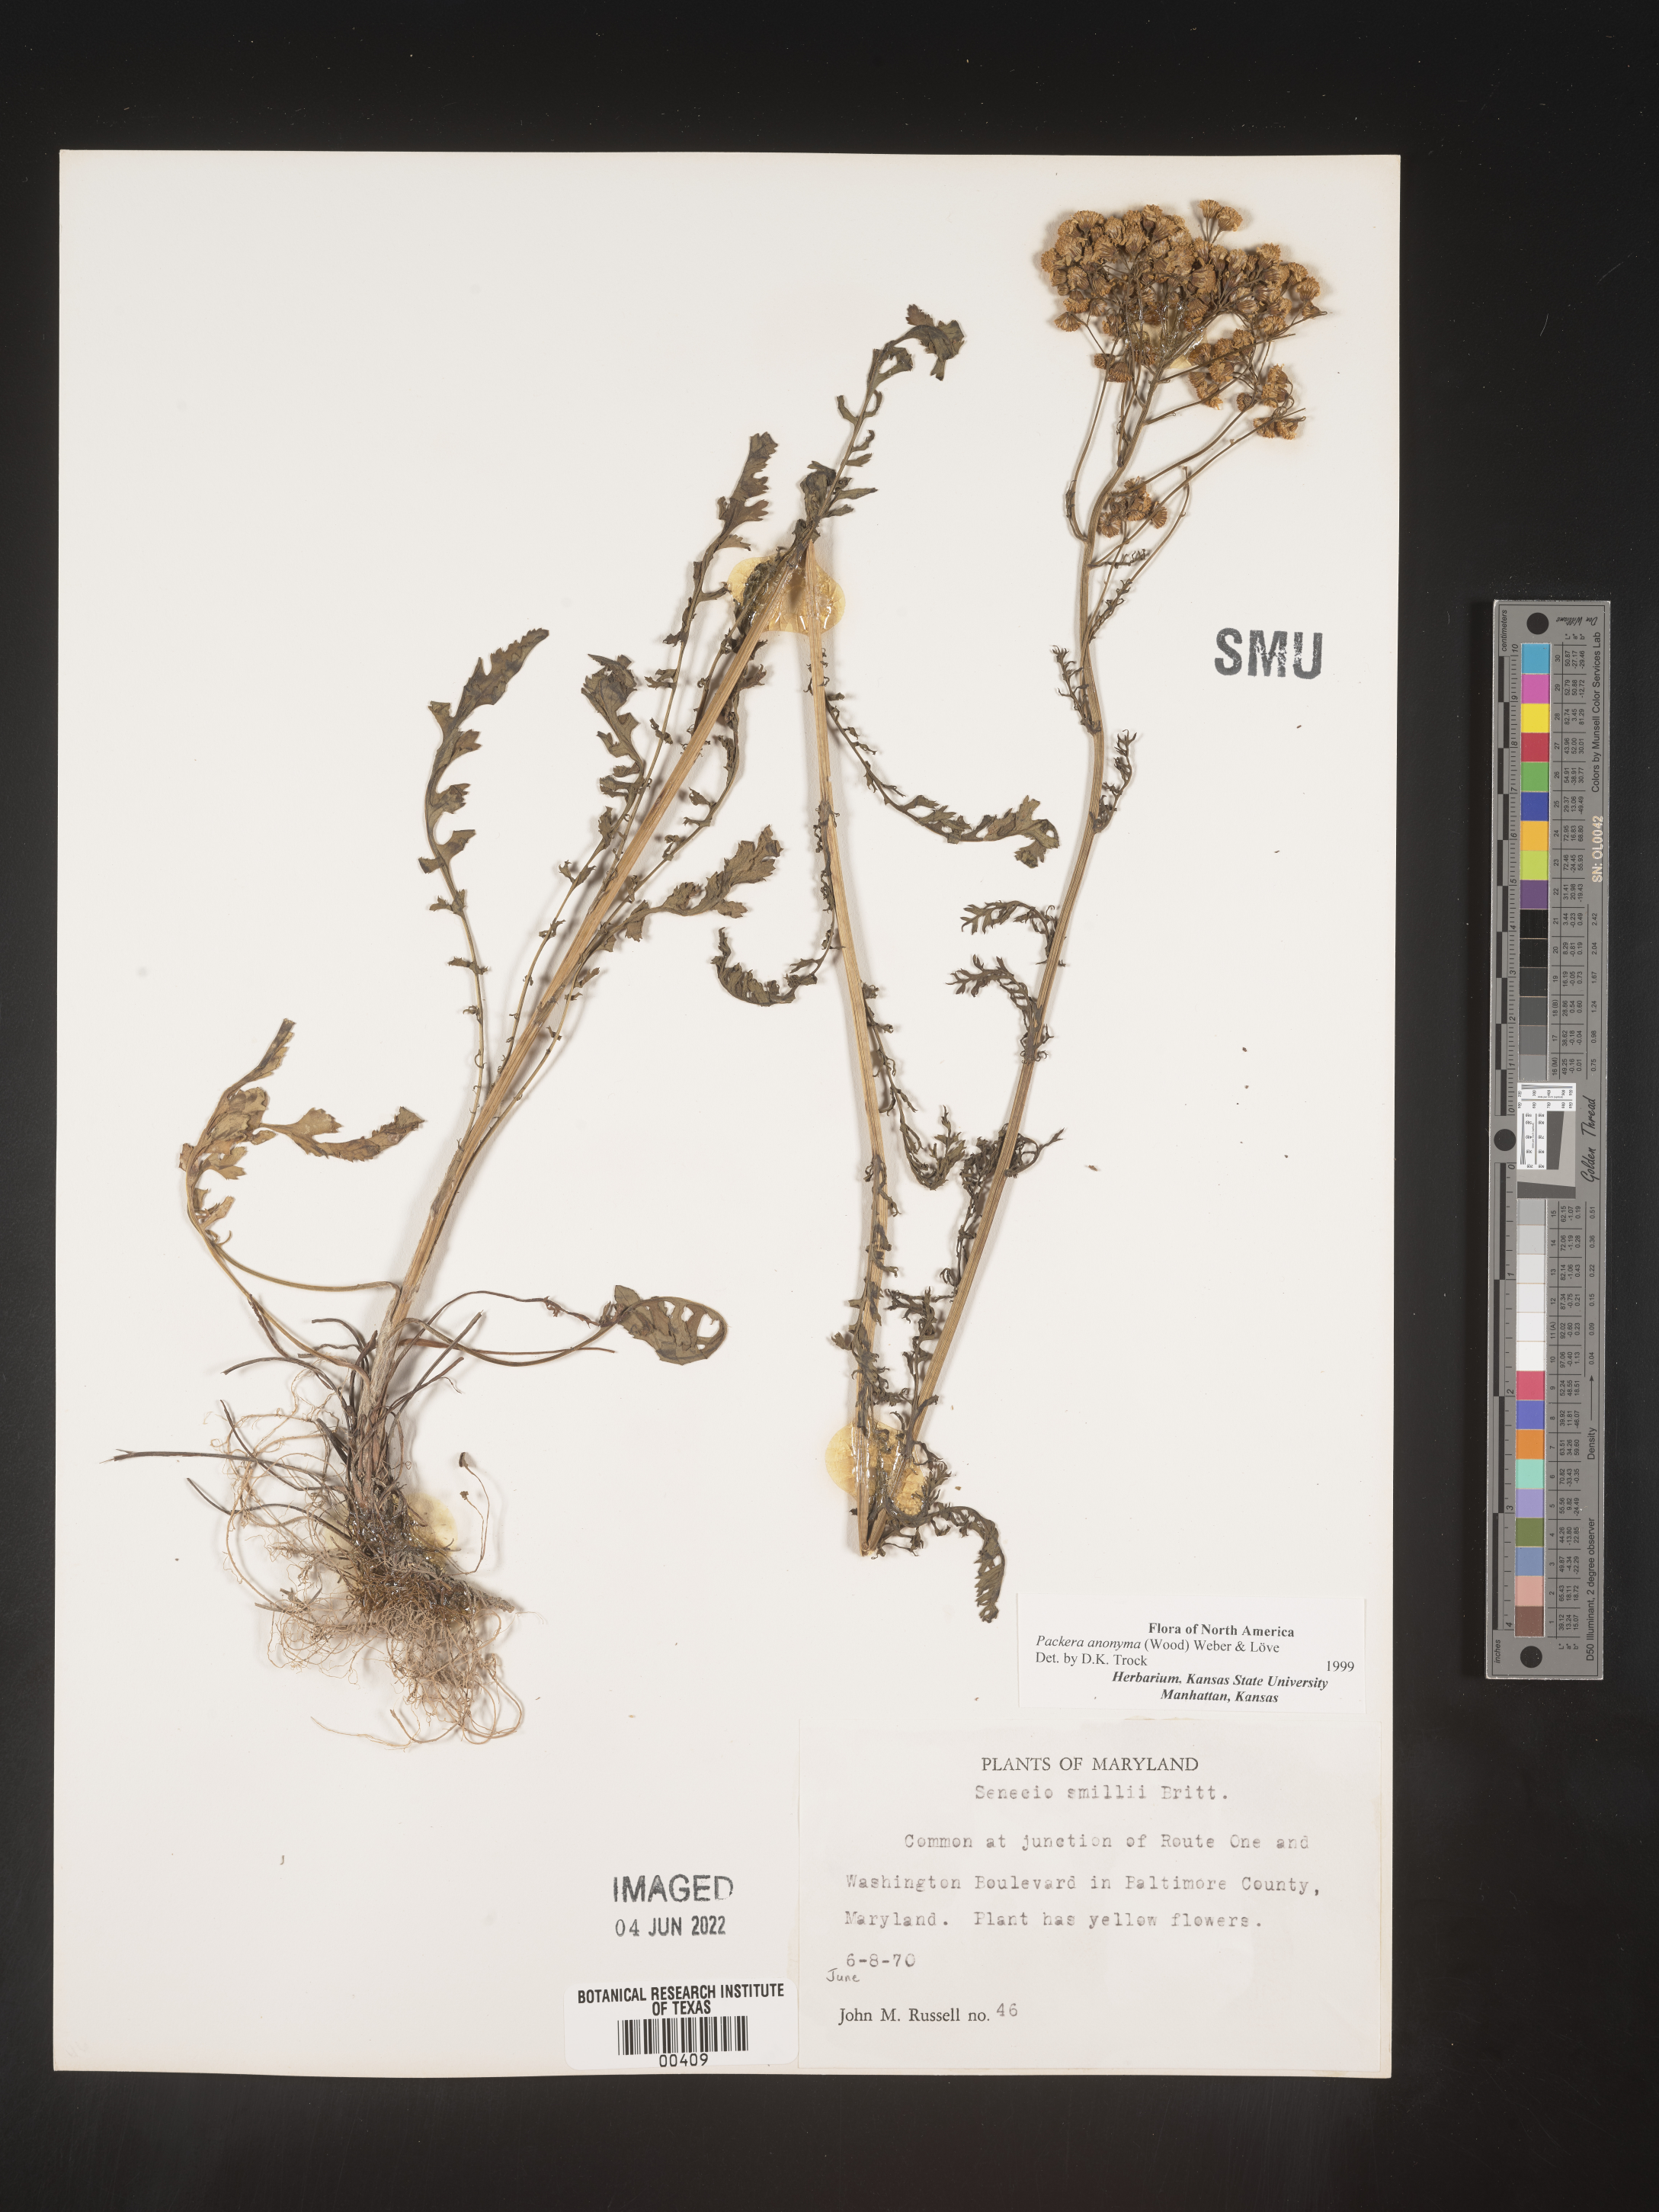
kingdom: Plantae
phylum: Tracheophyta
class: Magnoliopsida
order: Asterales
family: Asteraceae
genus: Packera
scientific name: Packera anonyma
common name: Small ragwort
